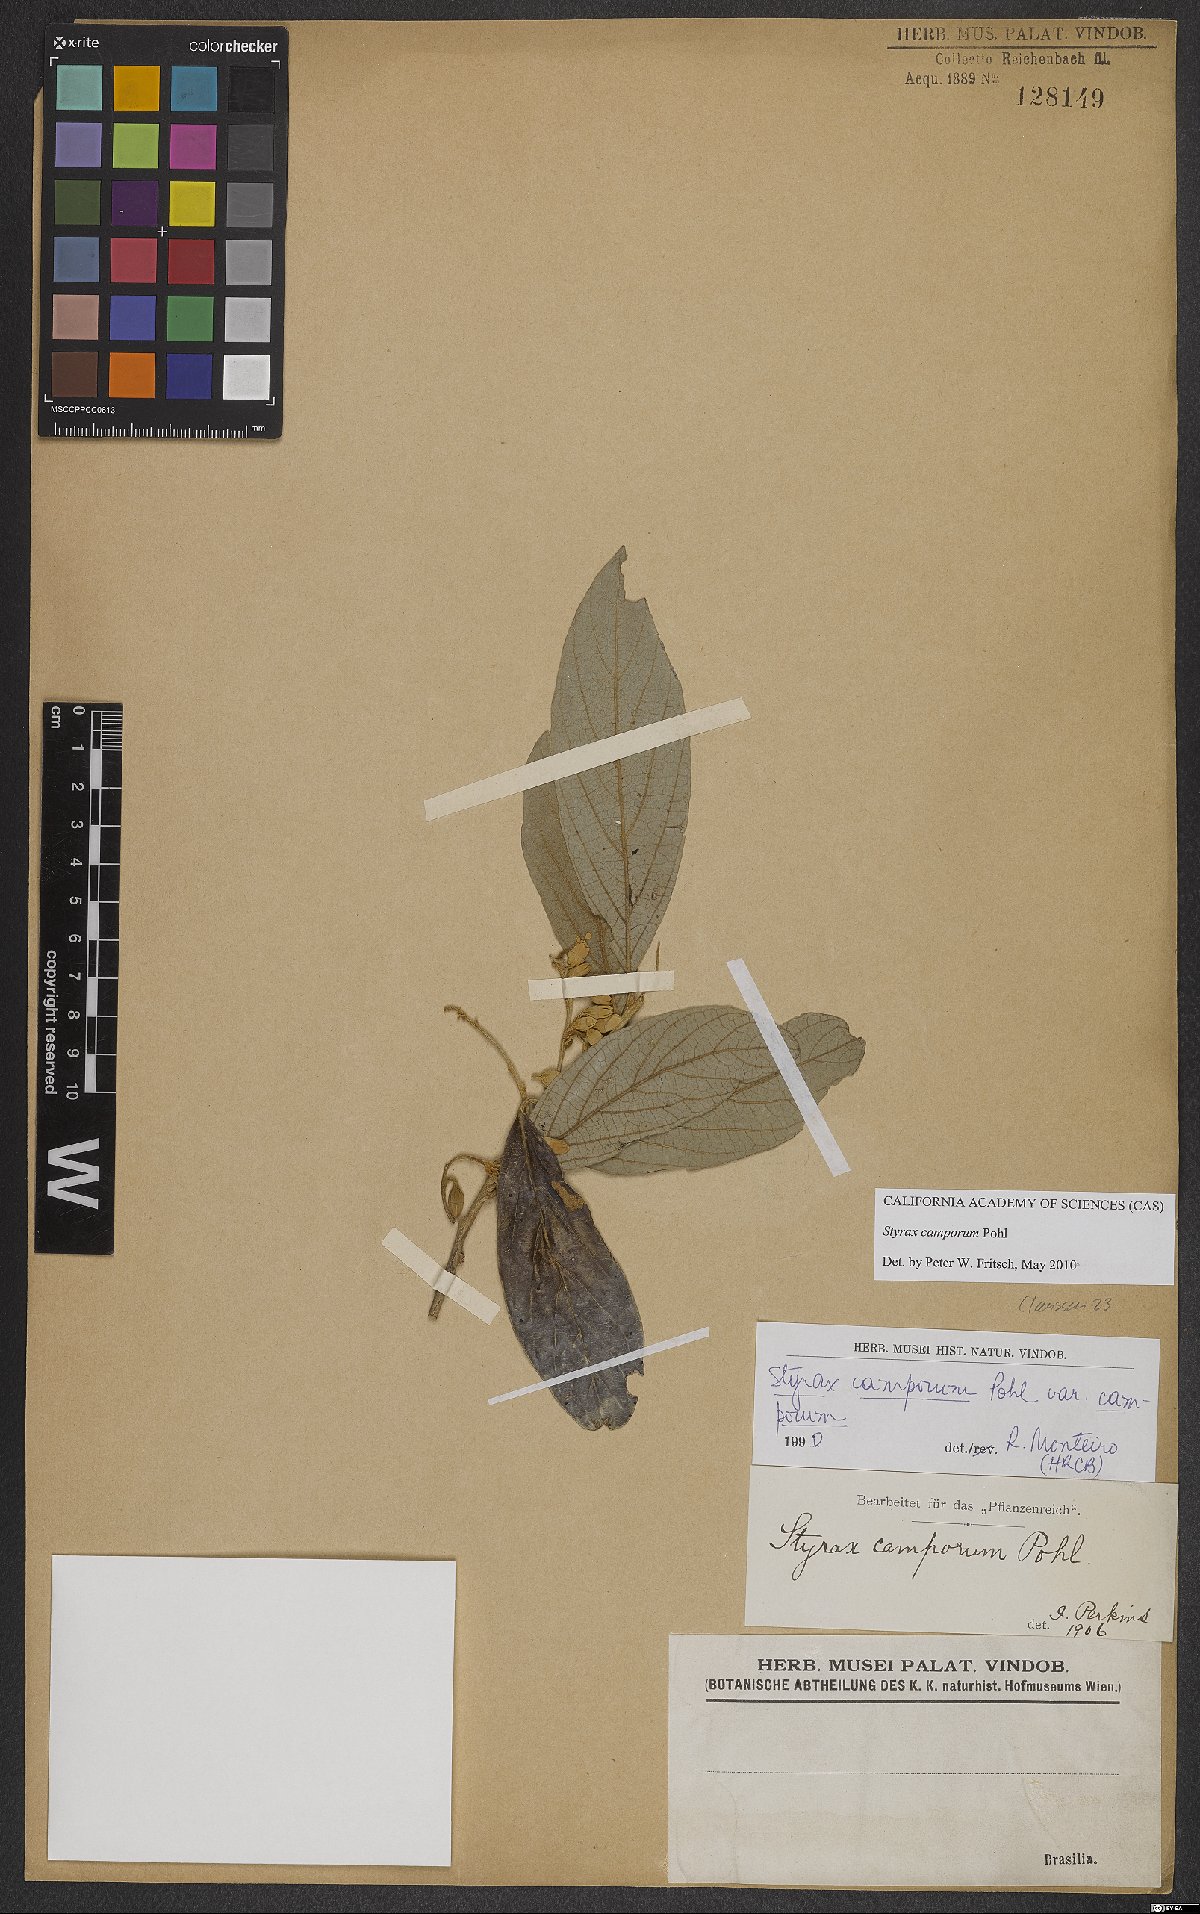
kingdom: Plantae
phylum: Tracheophyta
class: Magnoliopsida
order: Ericales
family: Styracaceae
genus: Styrax
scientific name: Styrax camporum
